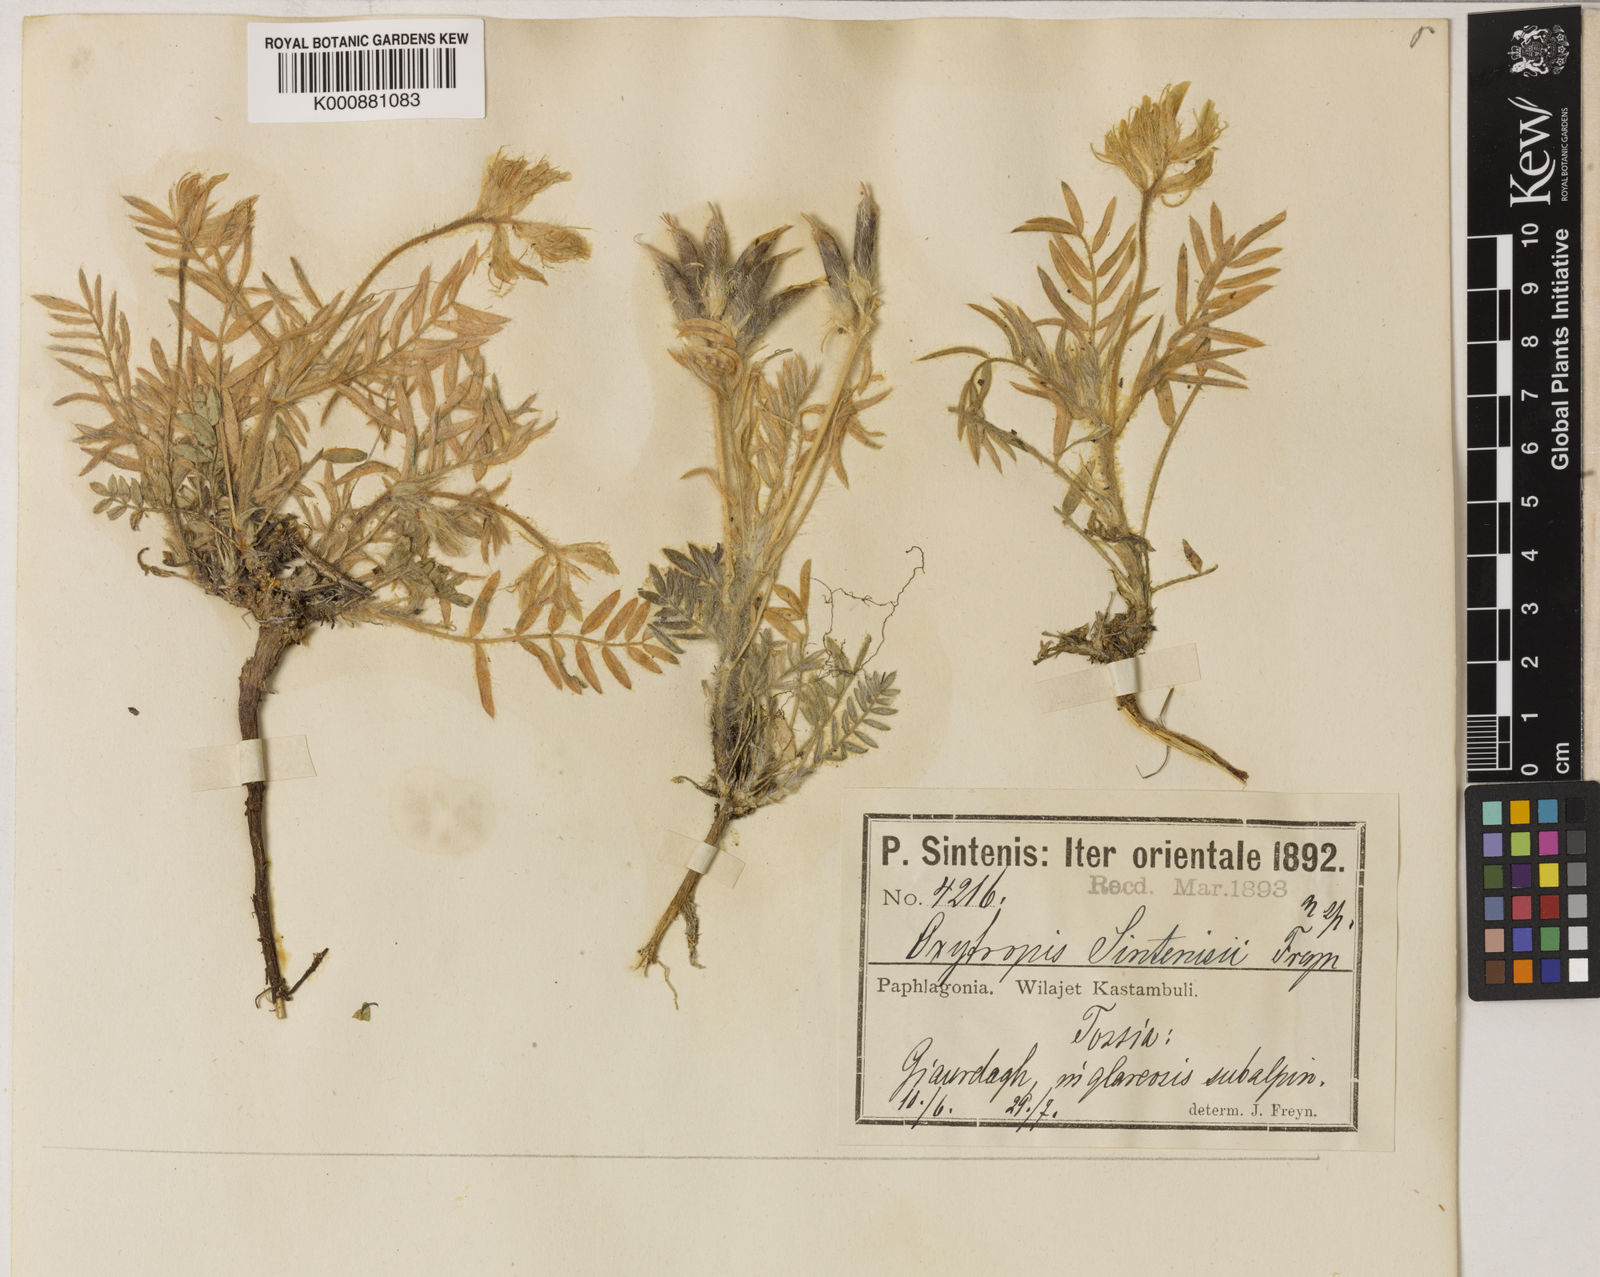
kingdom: Plantae
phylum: Tracheophyta
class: Magnoliopsida
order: Fabales
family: Fabaceae
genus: Oxytropis
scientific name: Oxytropis pallasii
